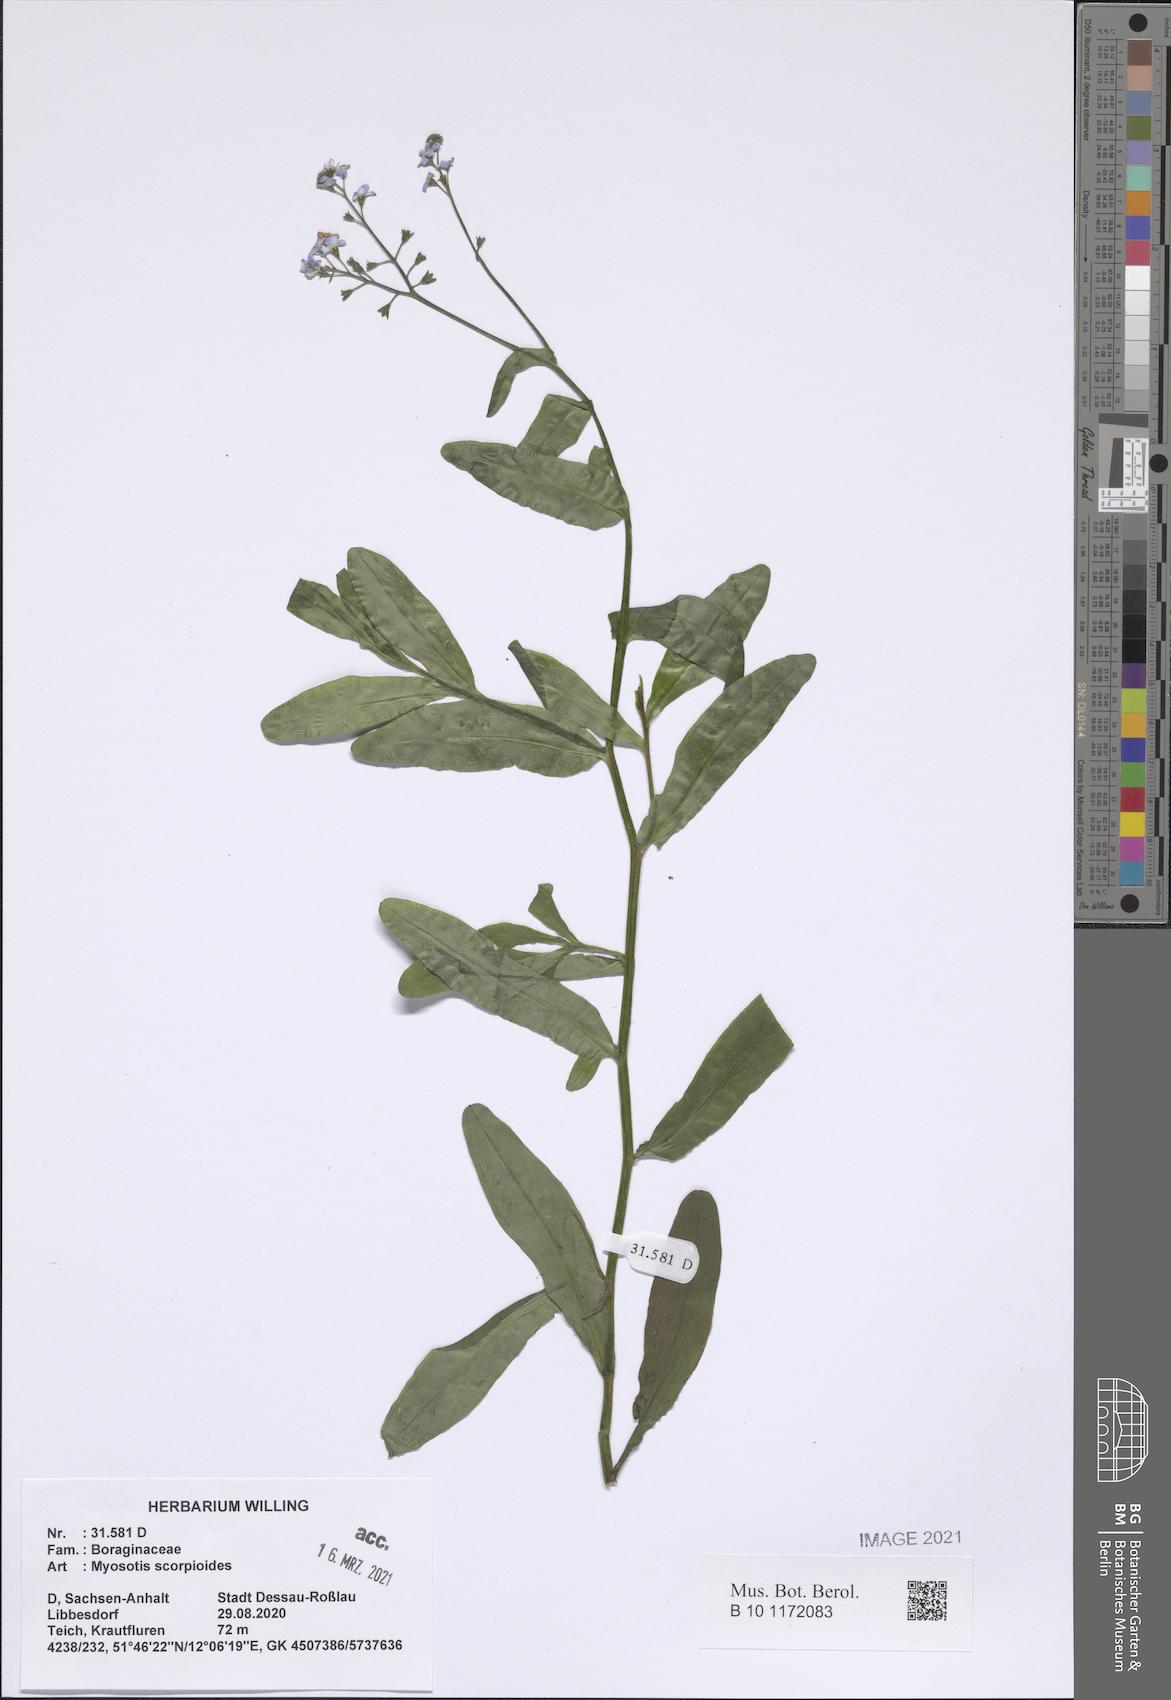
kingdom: Plantae
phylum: Tracheophyta
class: Magnoliopsida
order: Boraginales
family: Boraginaceae
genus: Myosotis
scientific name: Myosotis scorpioides
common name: Water forget-me-not
